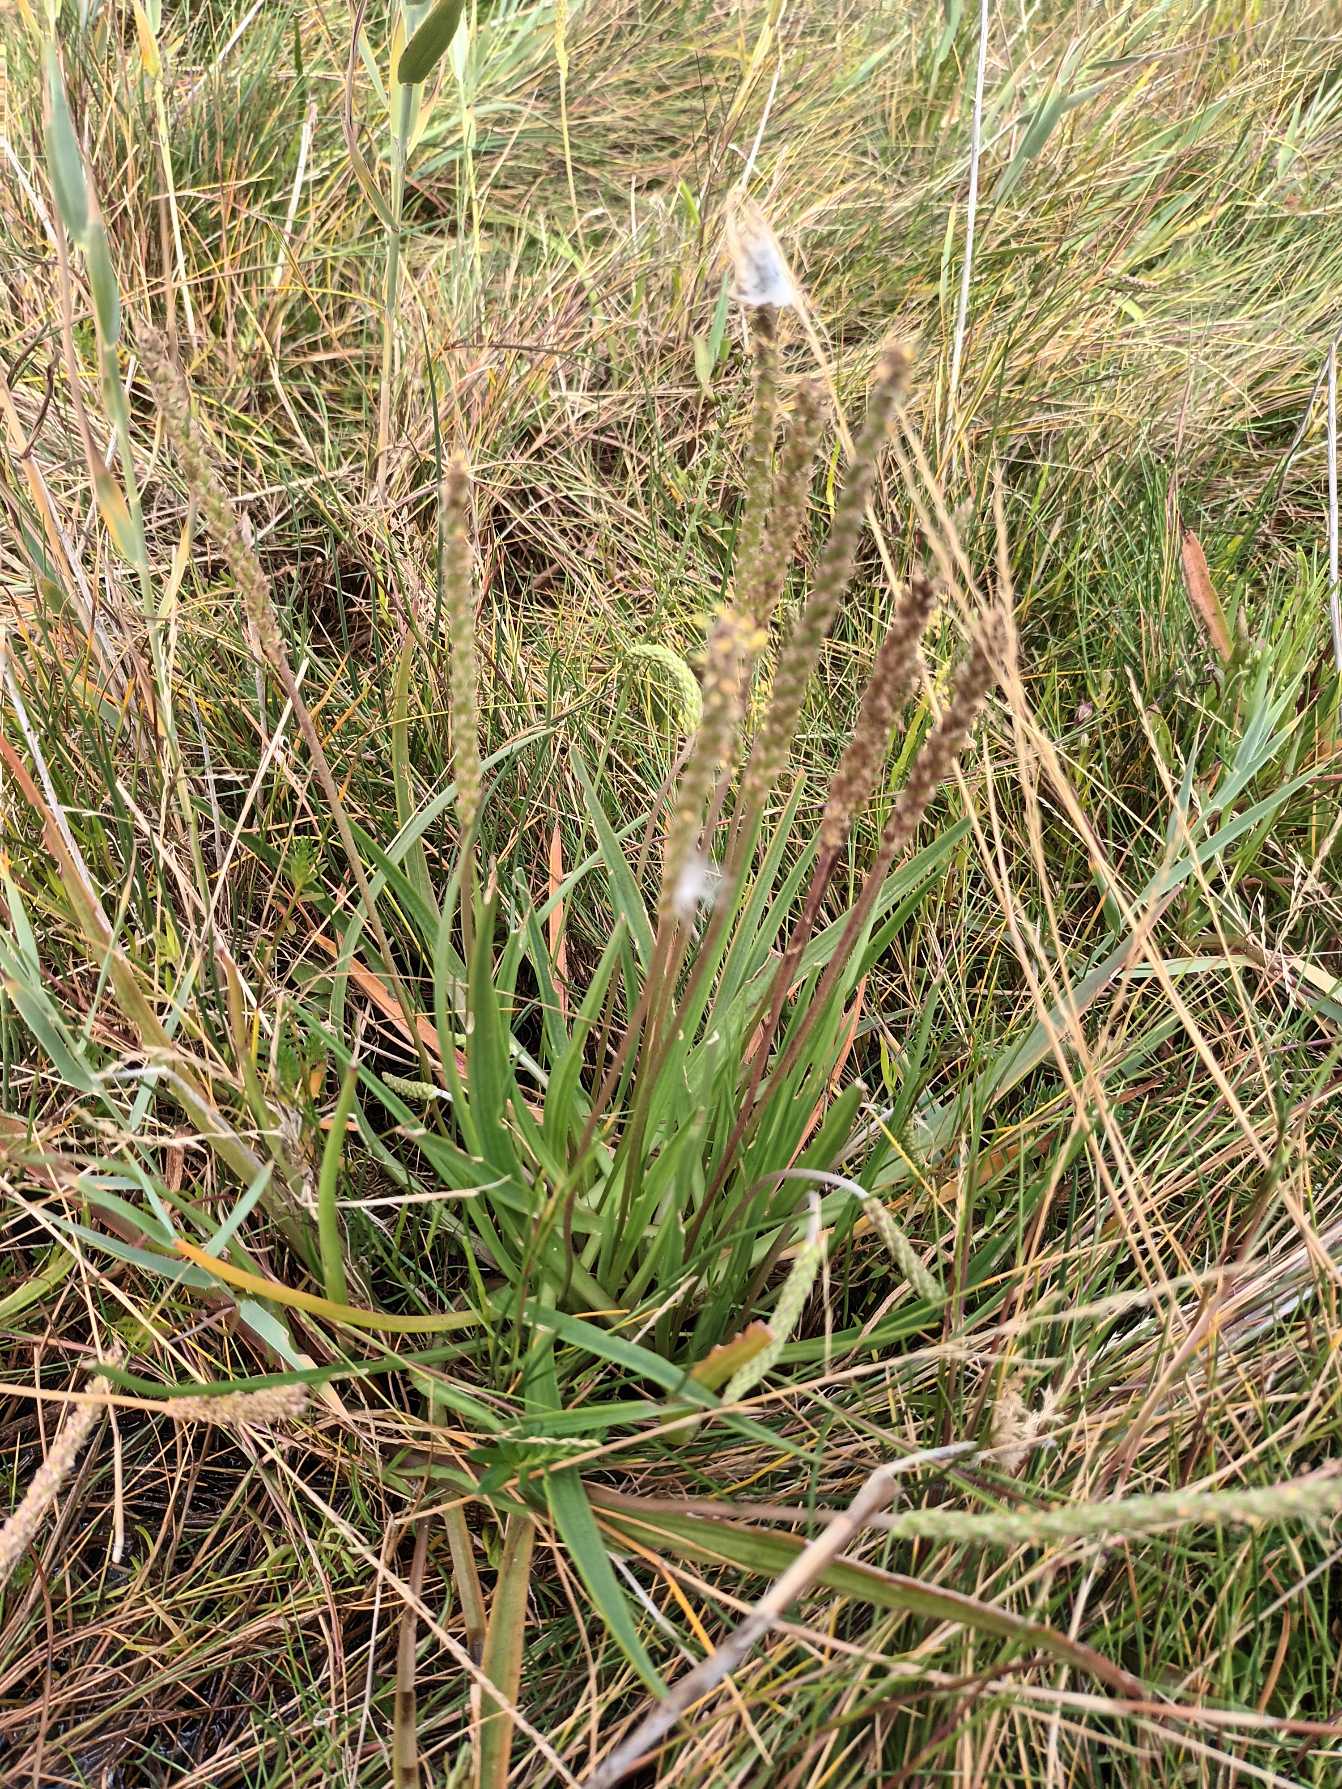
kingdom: Plantae
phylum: Tracheophyta
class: Magnoliopsida
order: Lamiales
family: Plantaginaceae
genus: Plantago
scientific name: Plantago maritima
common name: Strand-vejbred
